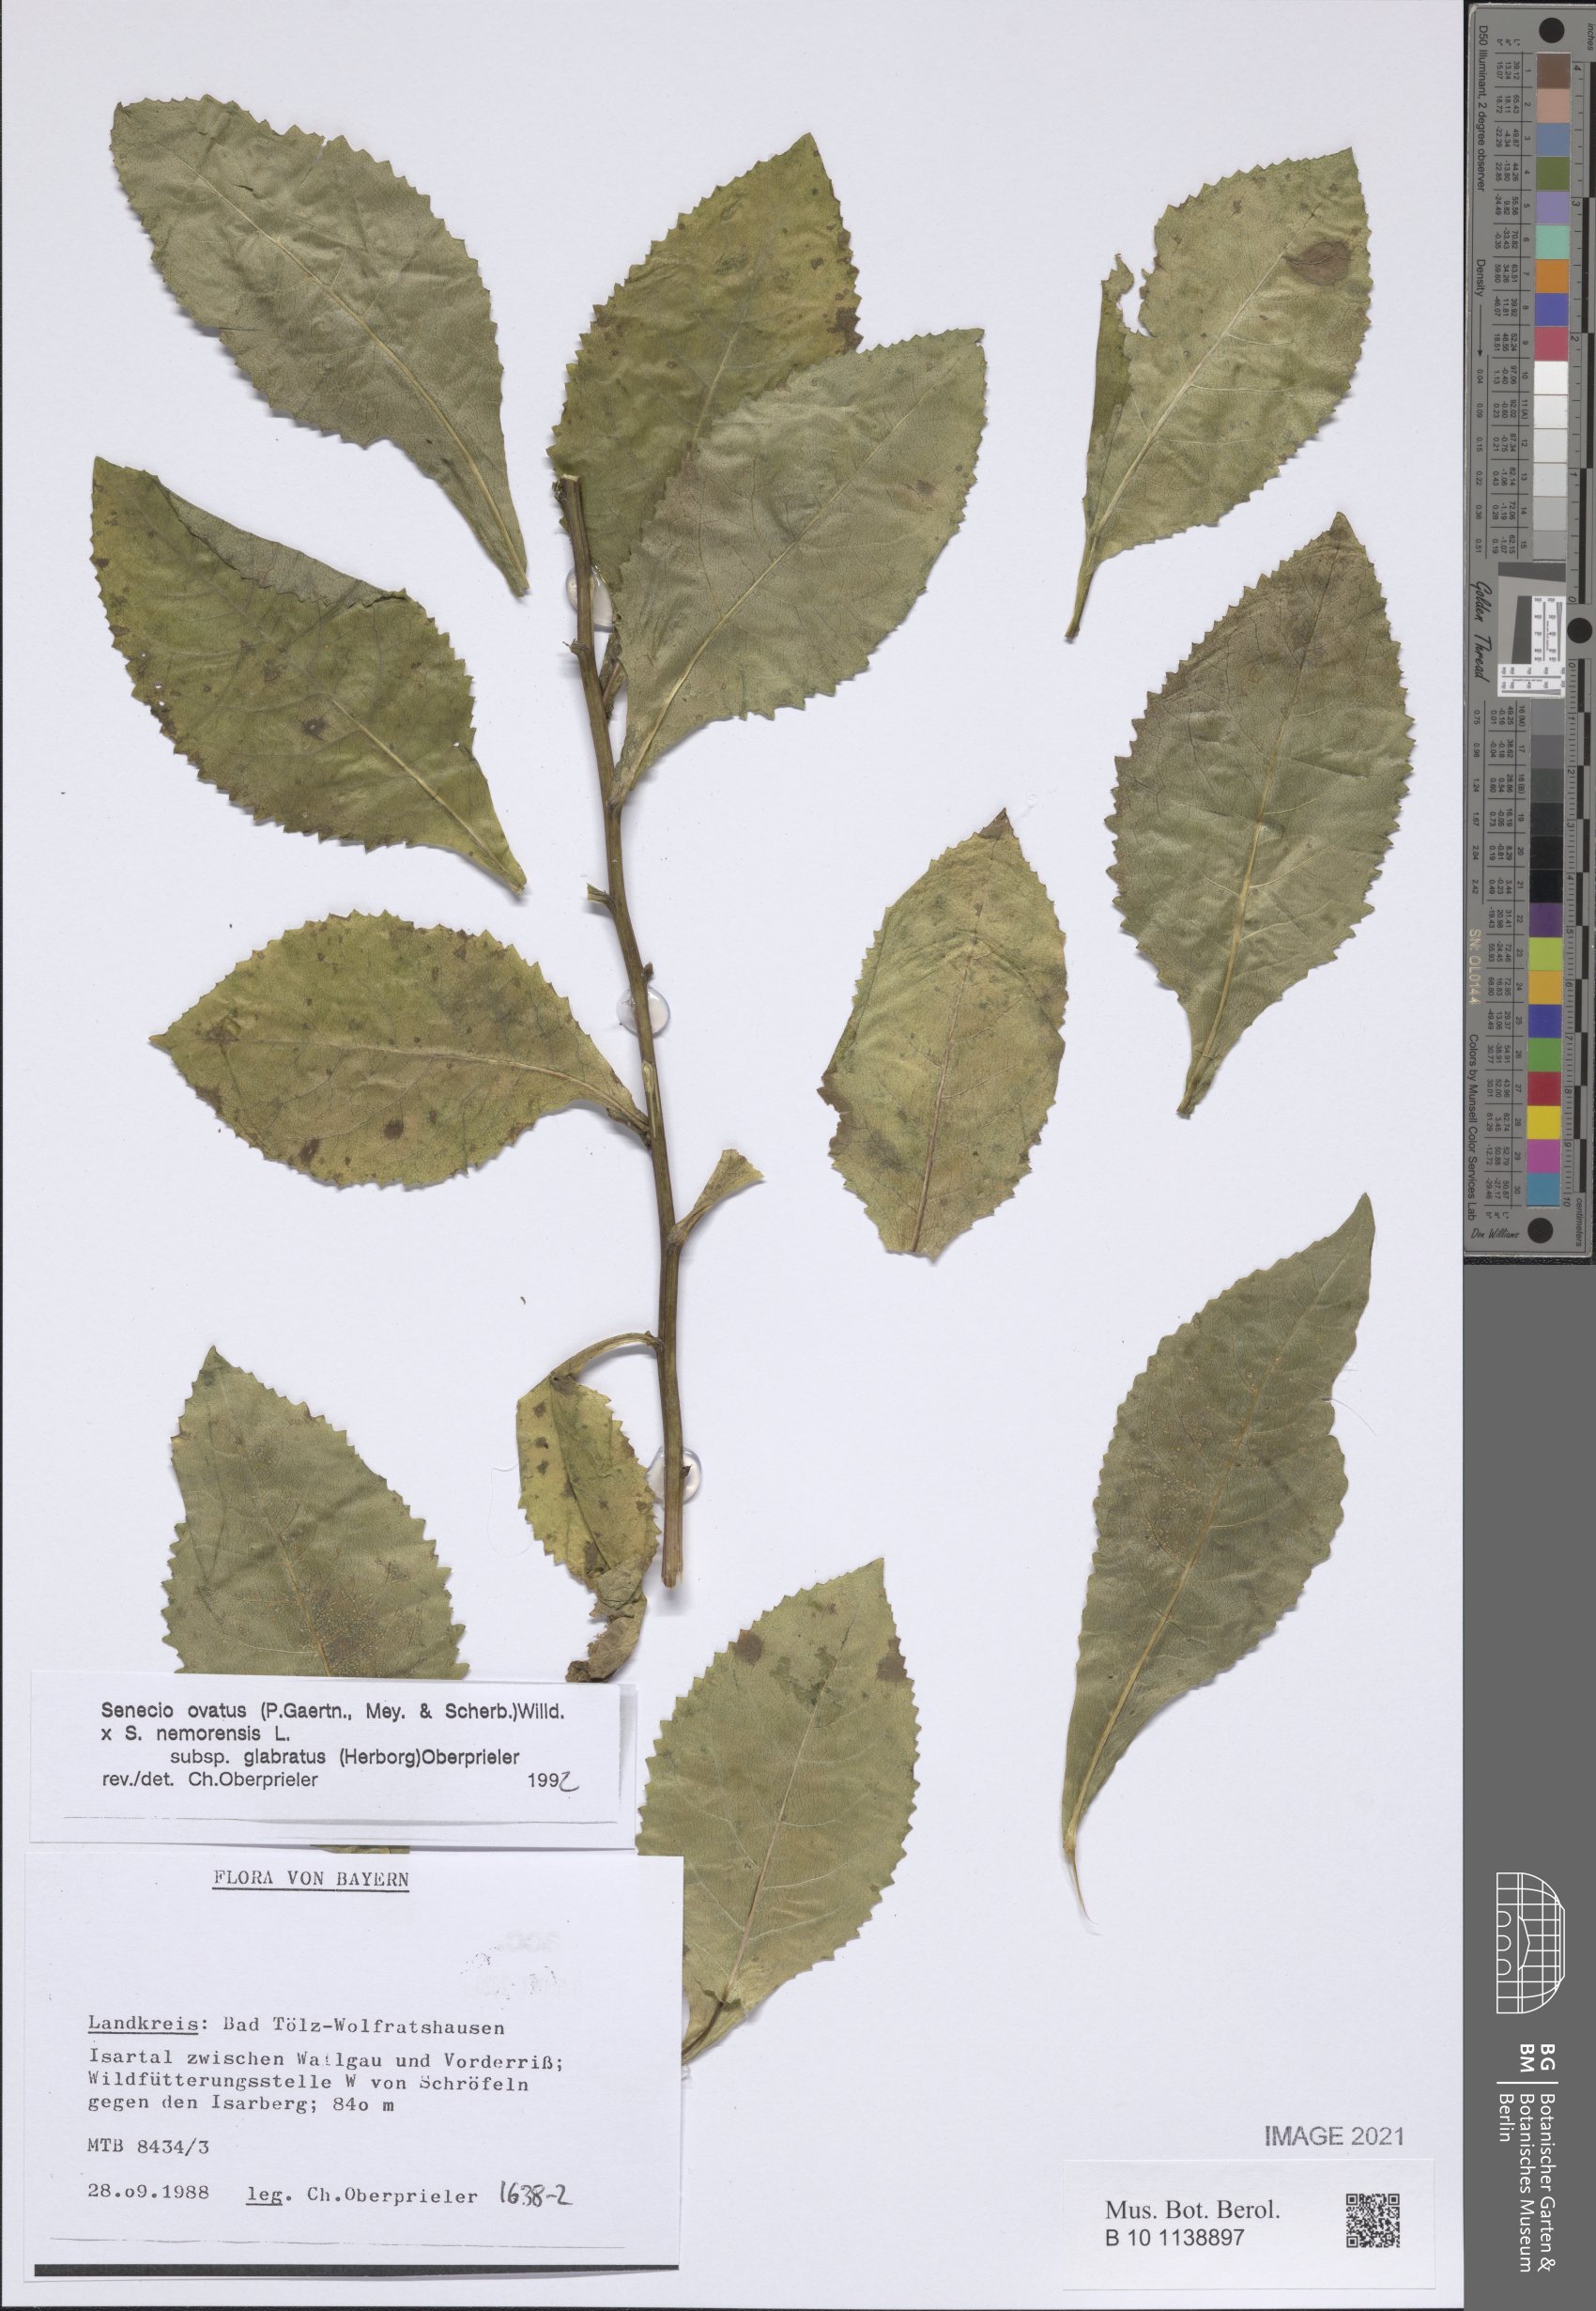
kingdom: Plantae
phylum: Tracheophyta
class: Magnoliopsida
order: Asterales
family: Asteraceae
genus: Senecio
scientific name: Senecio ovatus
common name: Wood ragwort
